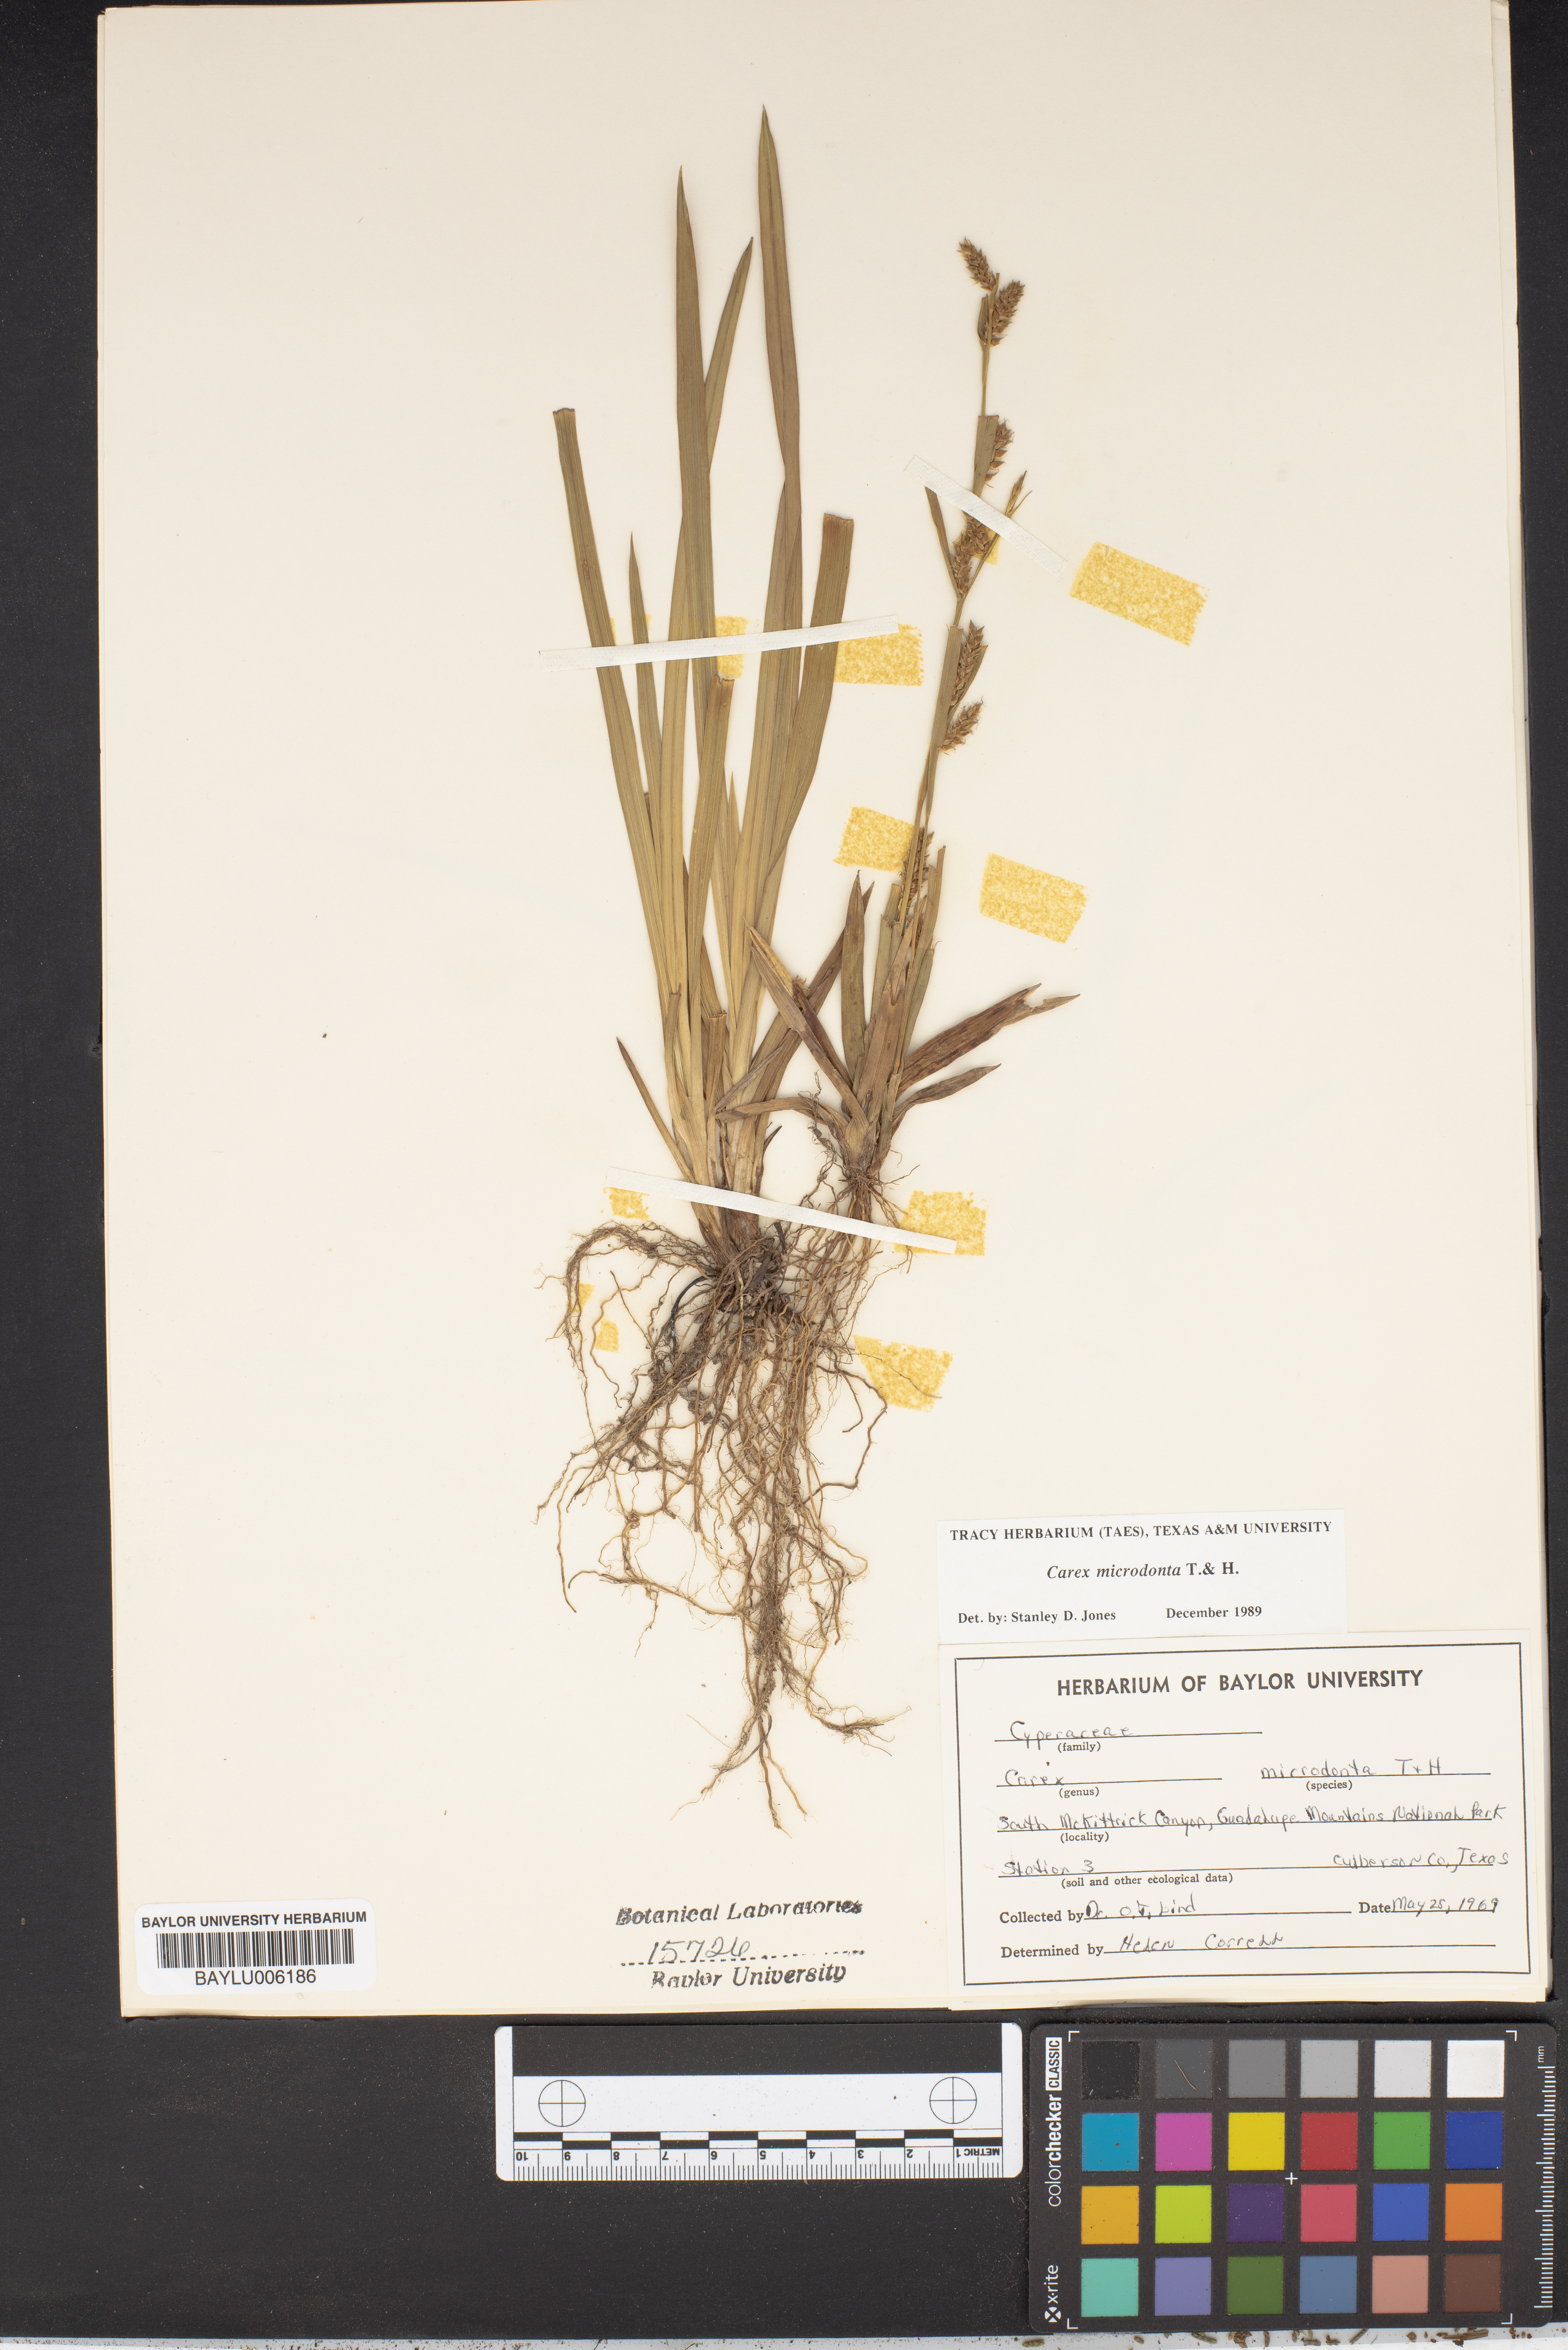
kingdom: Plantae
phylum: Tracheophyta
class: Liliopsida
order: Poales
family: Cyperaceae
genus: Carex
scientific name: Carex microdonta
